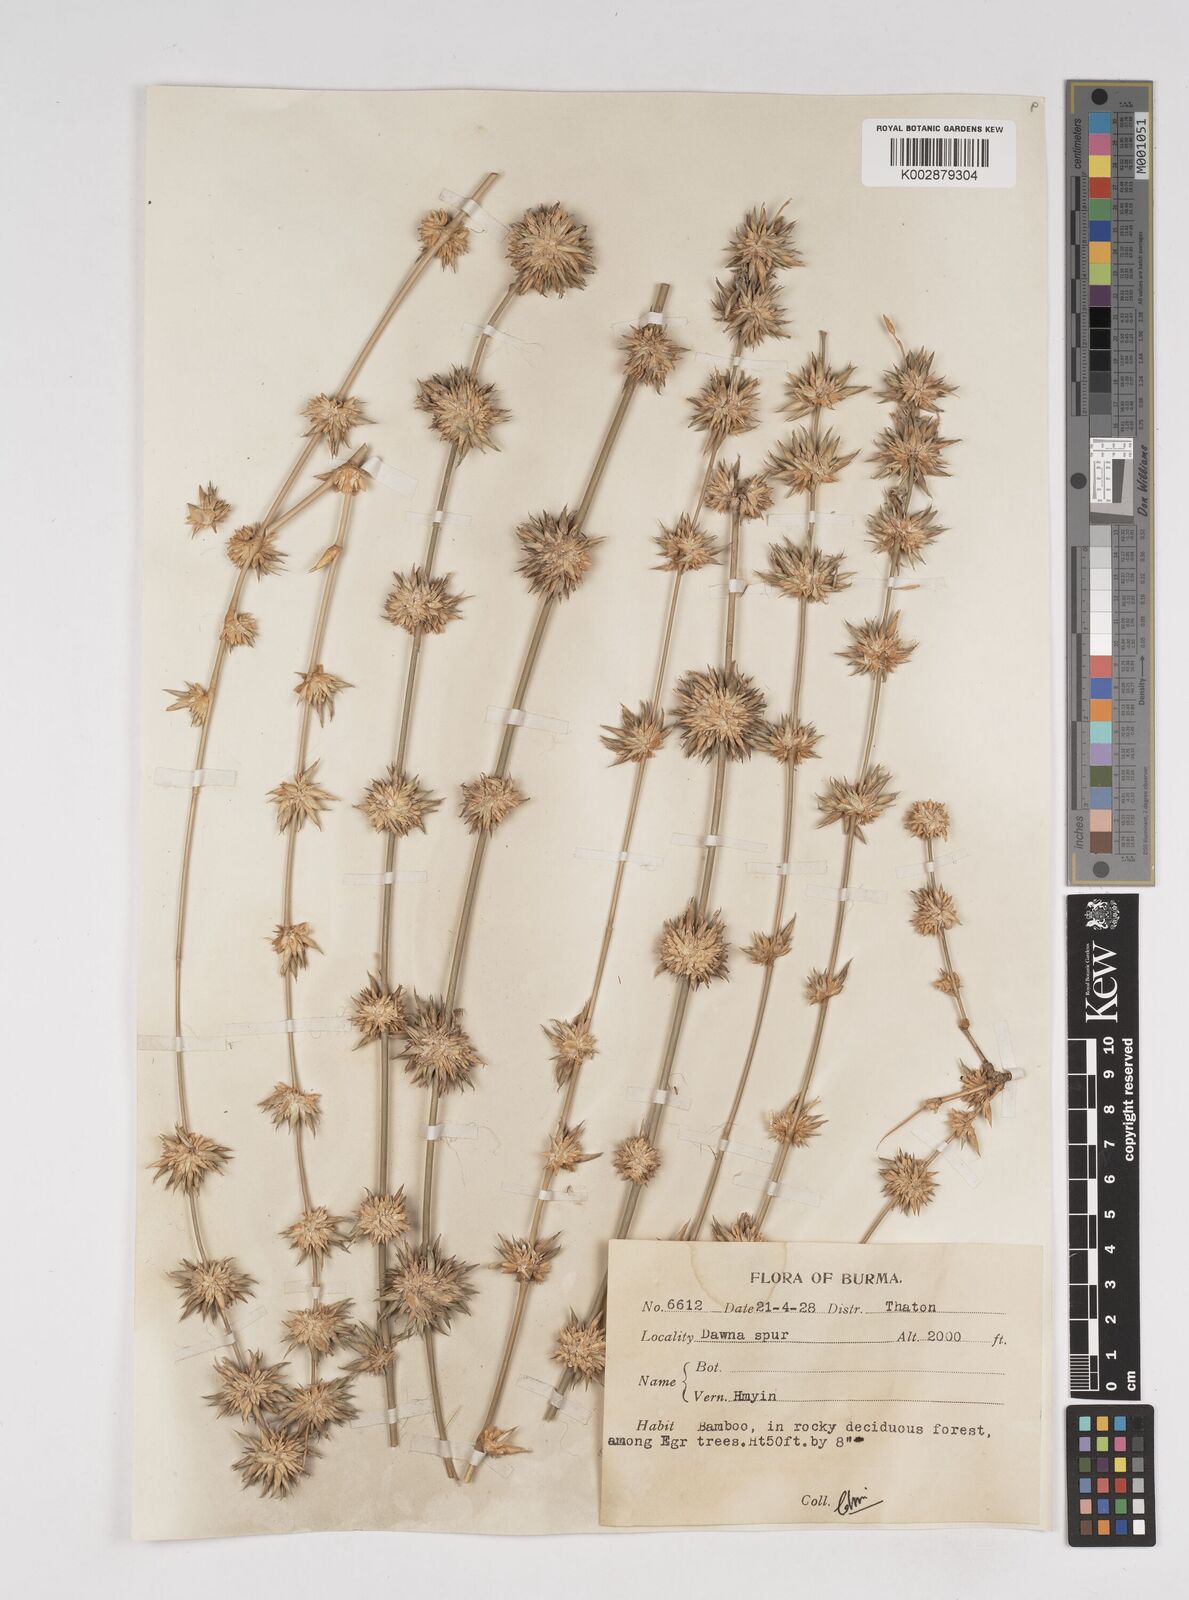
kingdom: Plantae
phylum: Tracheophyta
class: Liliopsida
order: Poales
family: Poaceae
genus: Dendrocalamus
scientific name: Dendrocalamus
